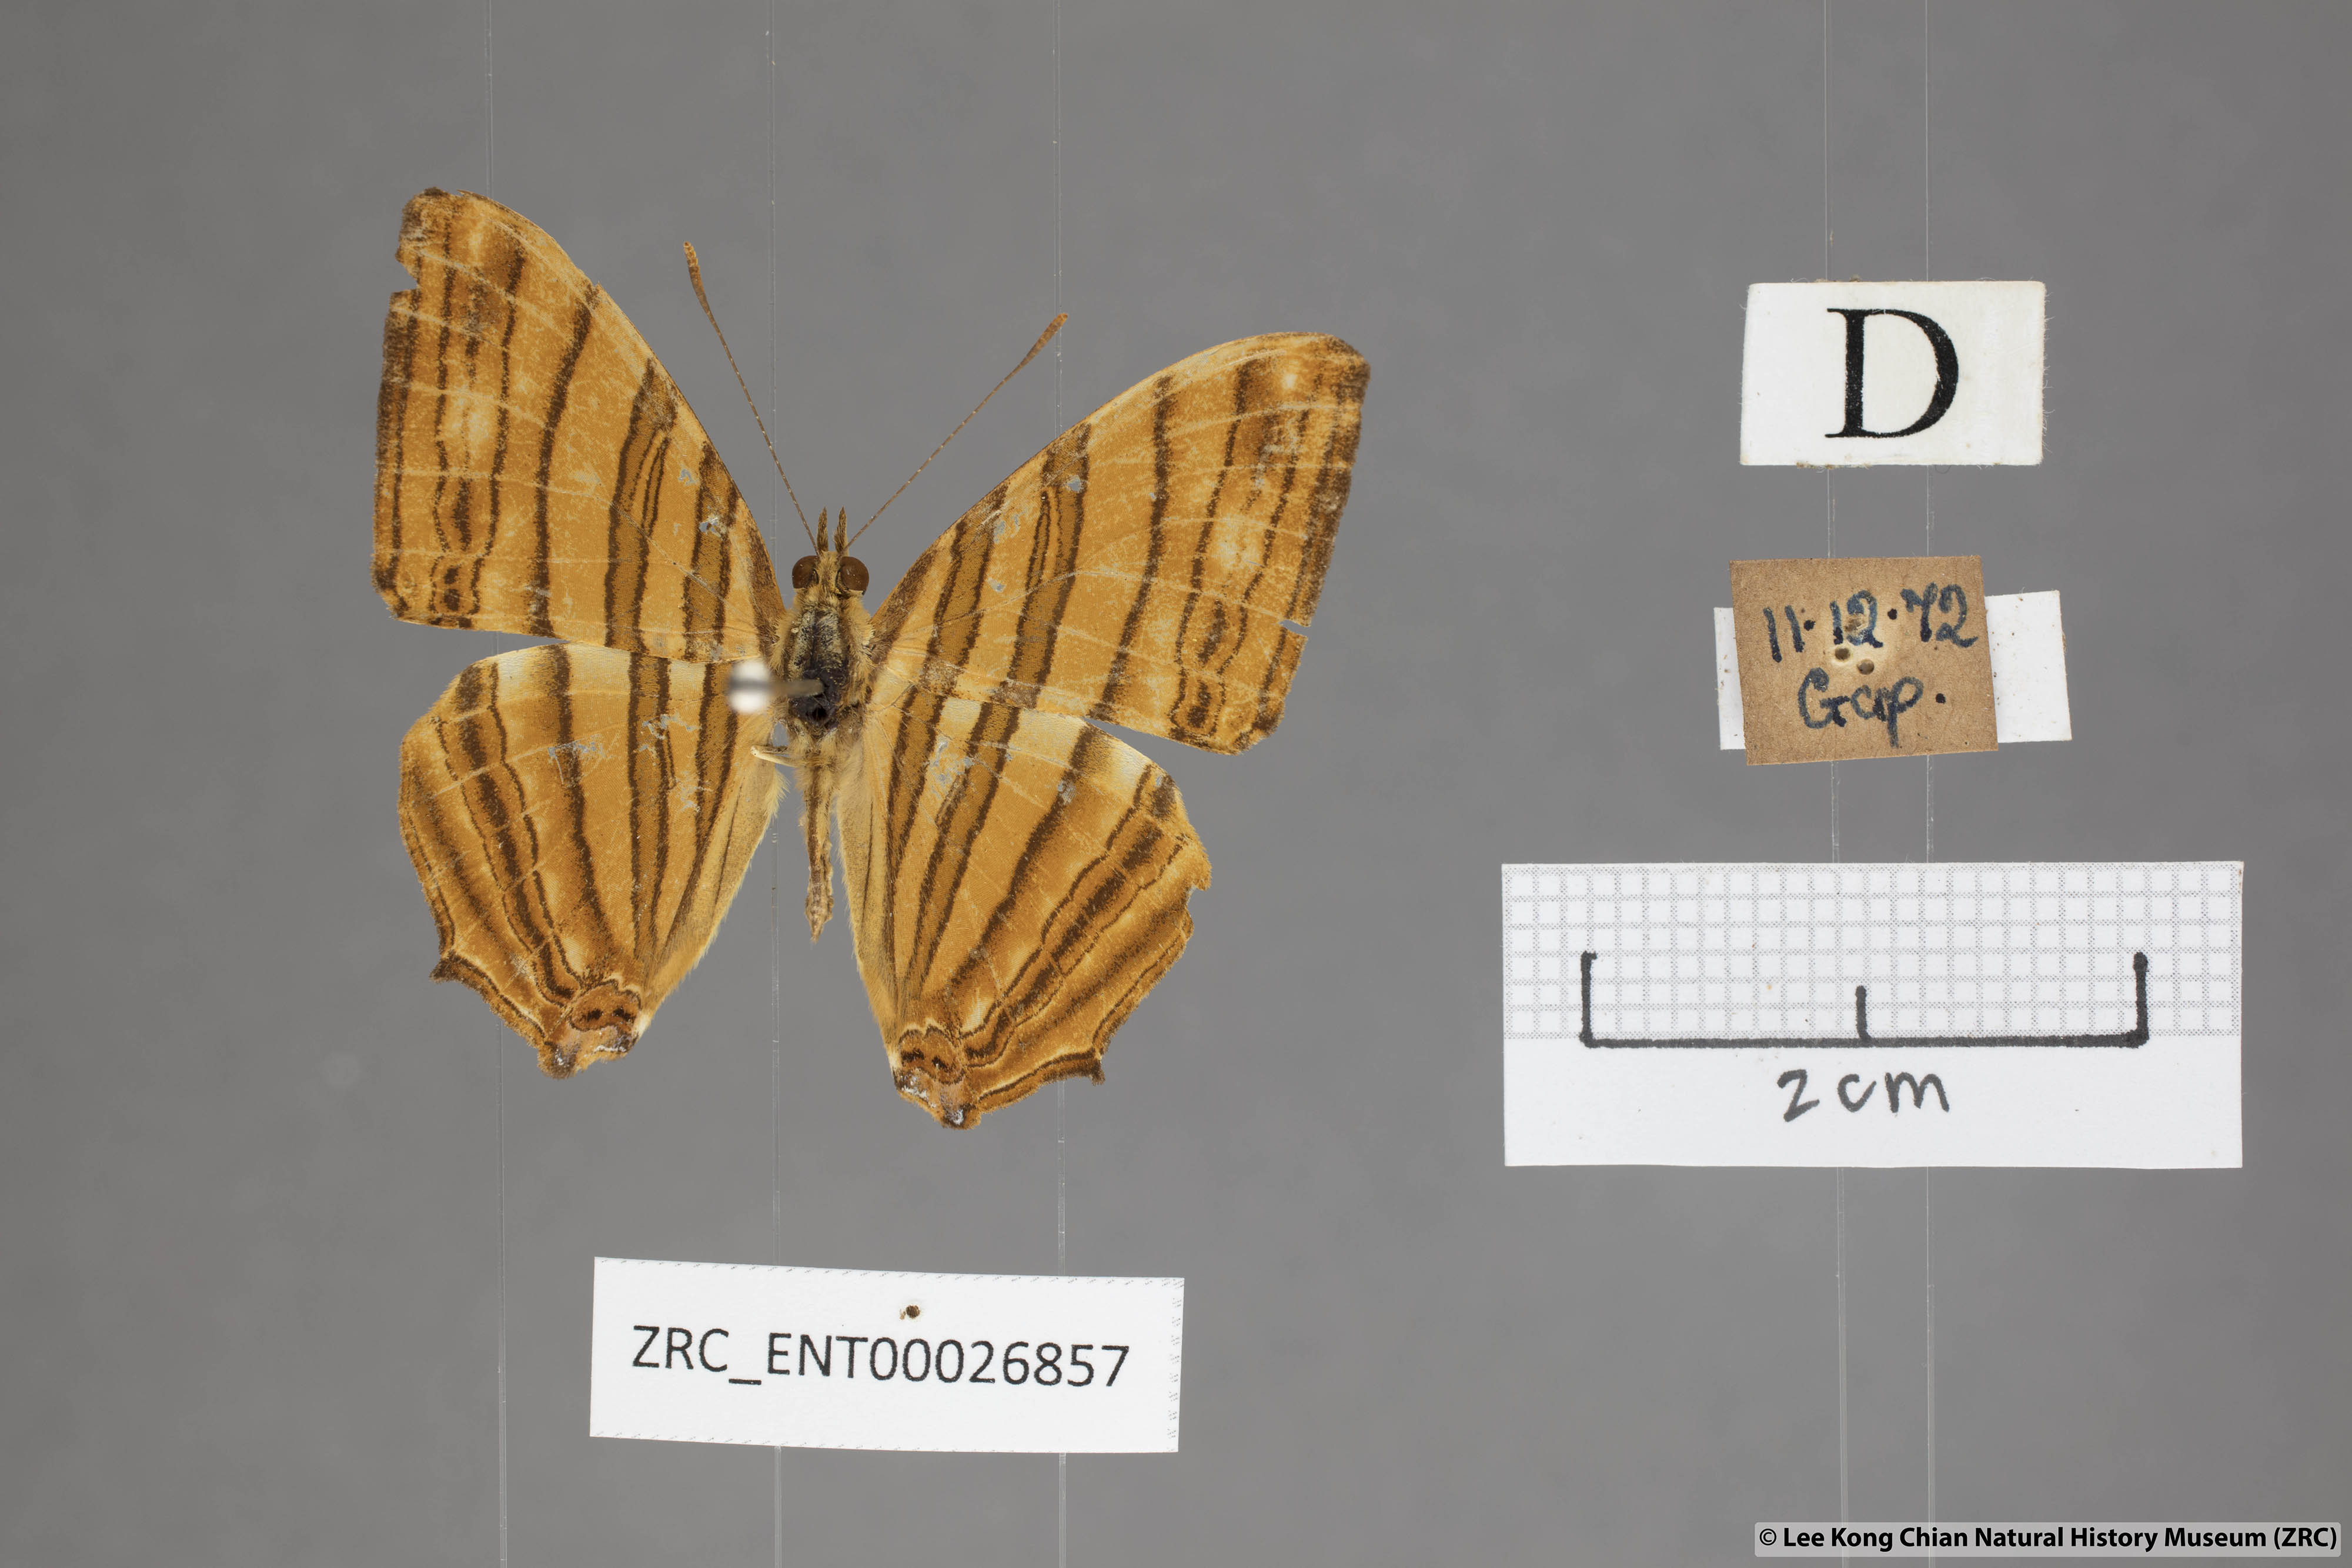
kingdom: Animalia
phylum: Arthropoda
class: Insecta
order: Lepidoptera
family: Nymphalidae
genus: Chersonesia
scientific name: Chersonesia risa
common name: Common maplet
